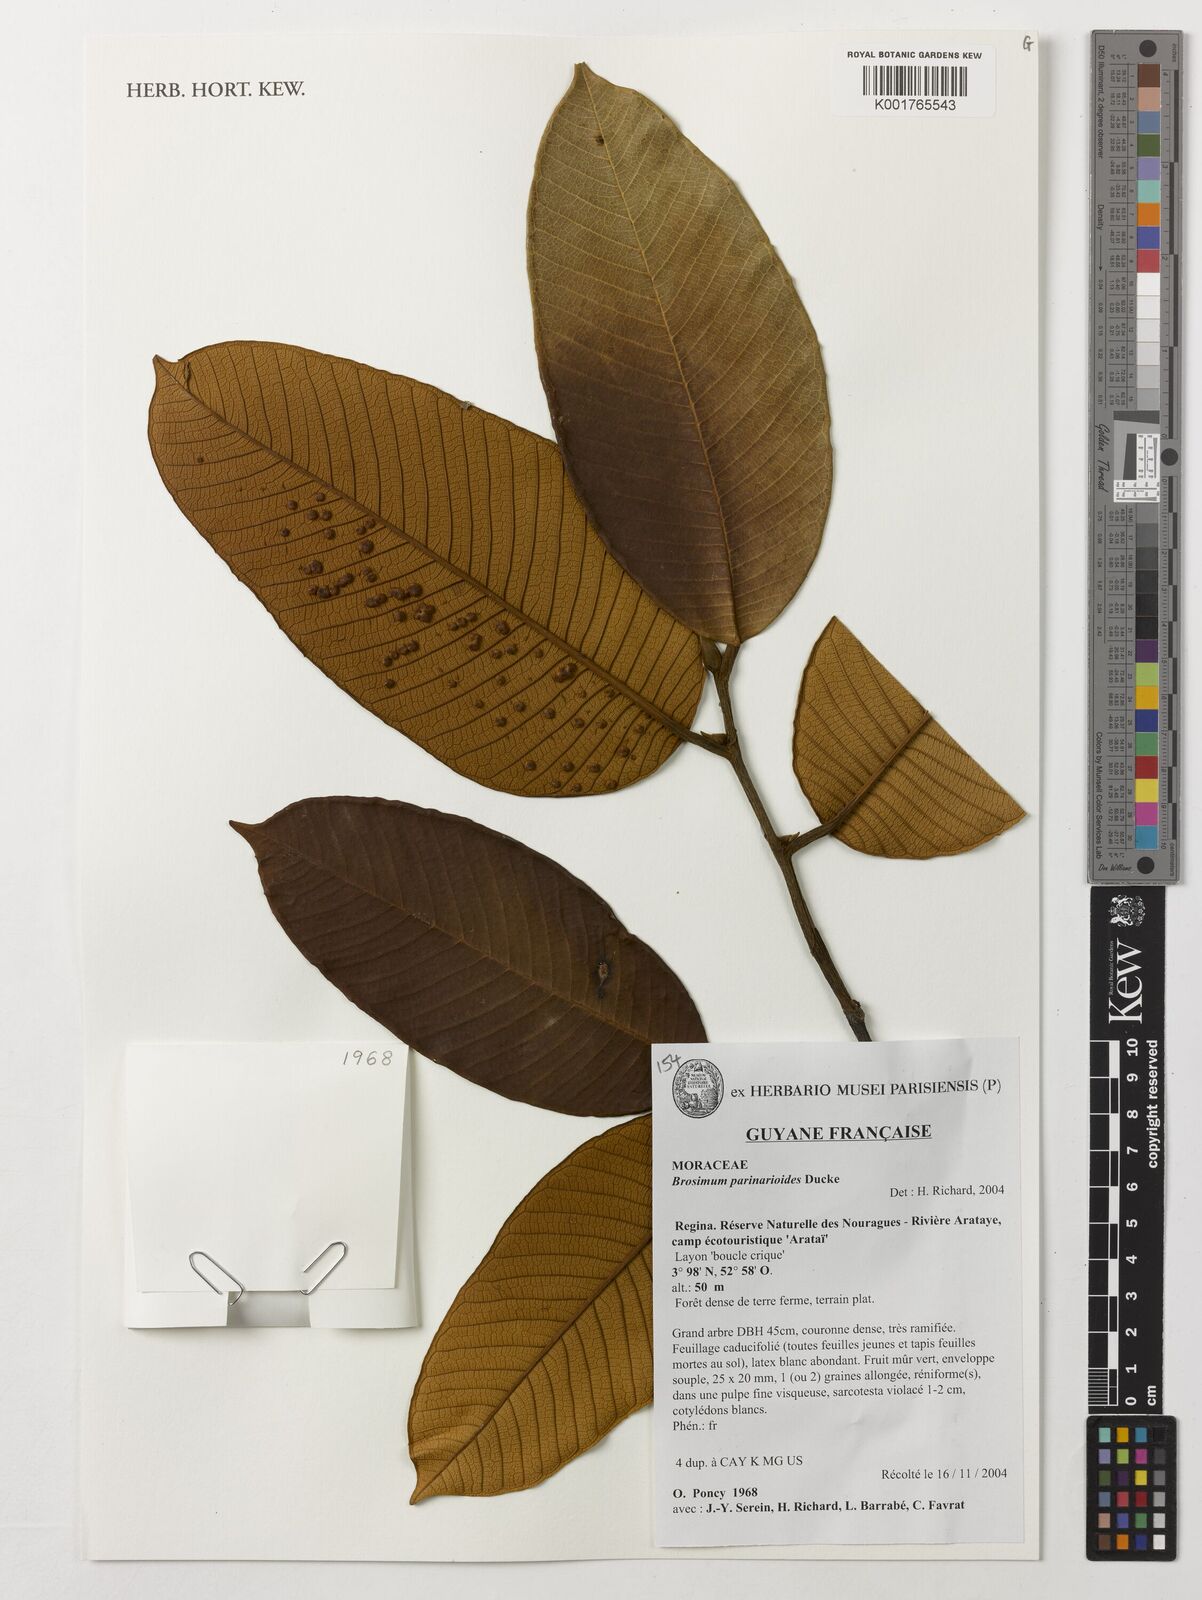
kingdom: Plantae
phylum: Tracheophyta
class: Magnoliopsida
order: Rosales
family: Moraceae
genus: Brosimum
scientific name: Brosimum parinarioides
